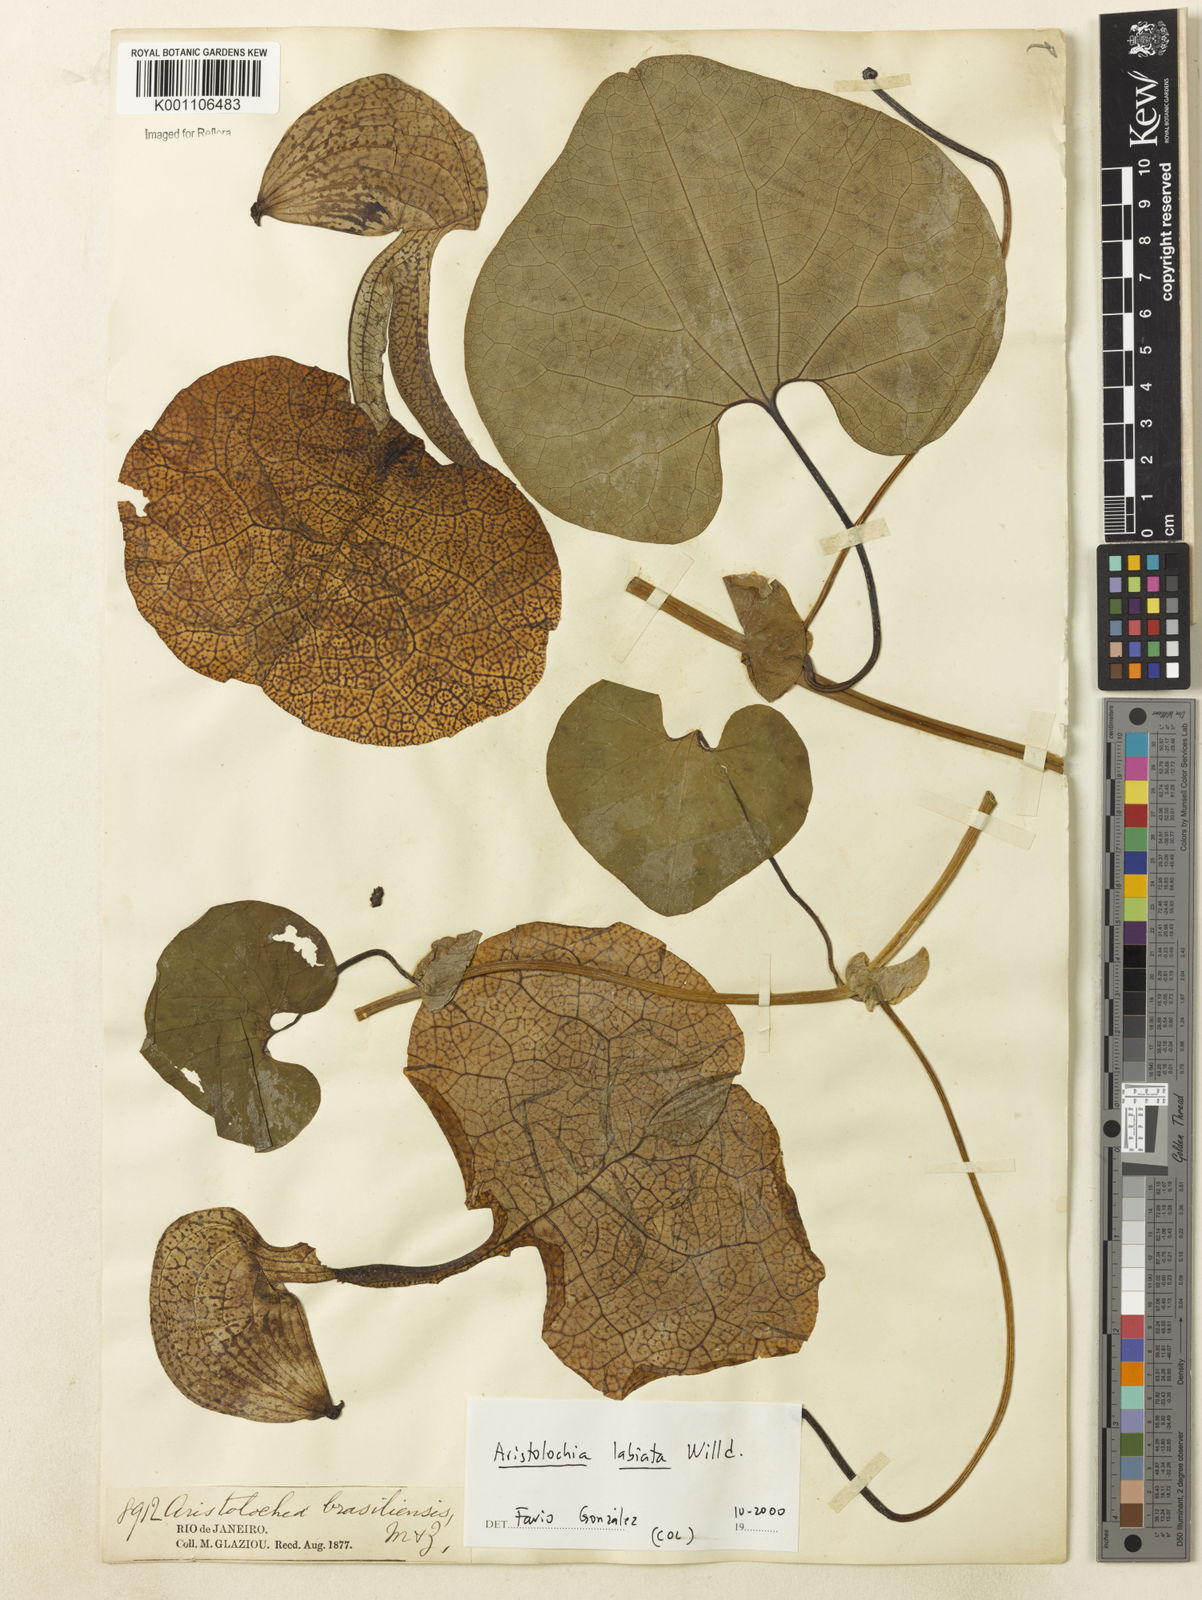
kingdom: Plantae
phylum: Tracheophyta
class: Magnoliopsida
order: Piperales
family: Aristolochiaceae
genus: Aristolochia
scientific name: Aristolochia labiata
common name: Mottled dutchman's pipe
